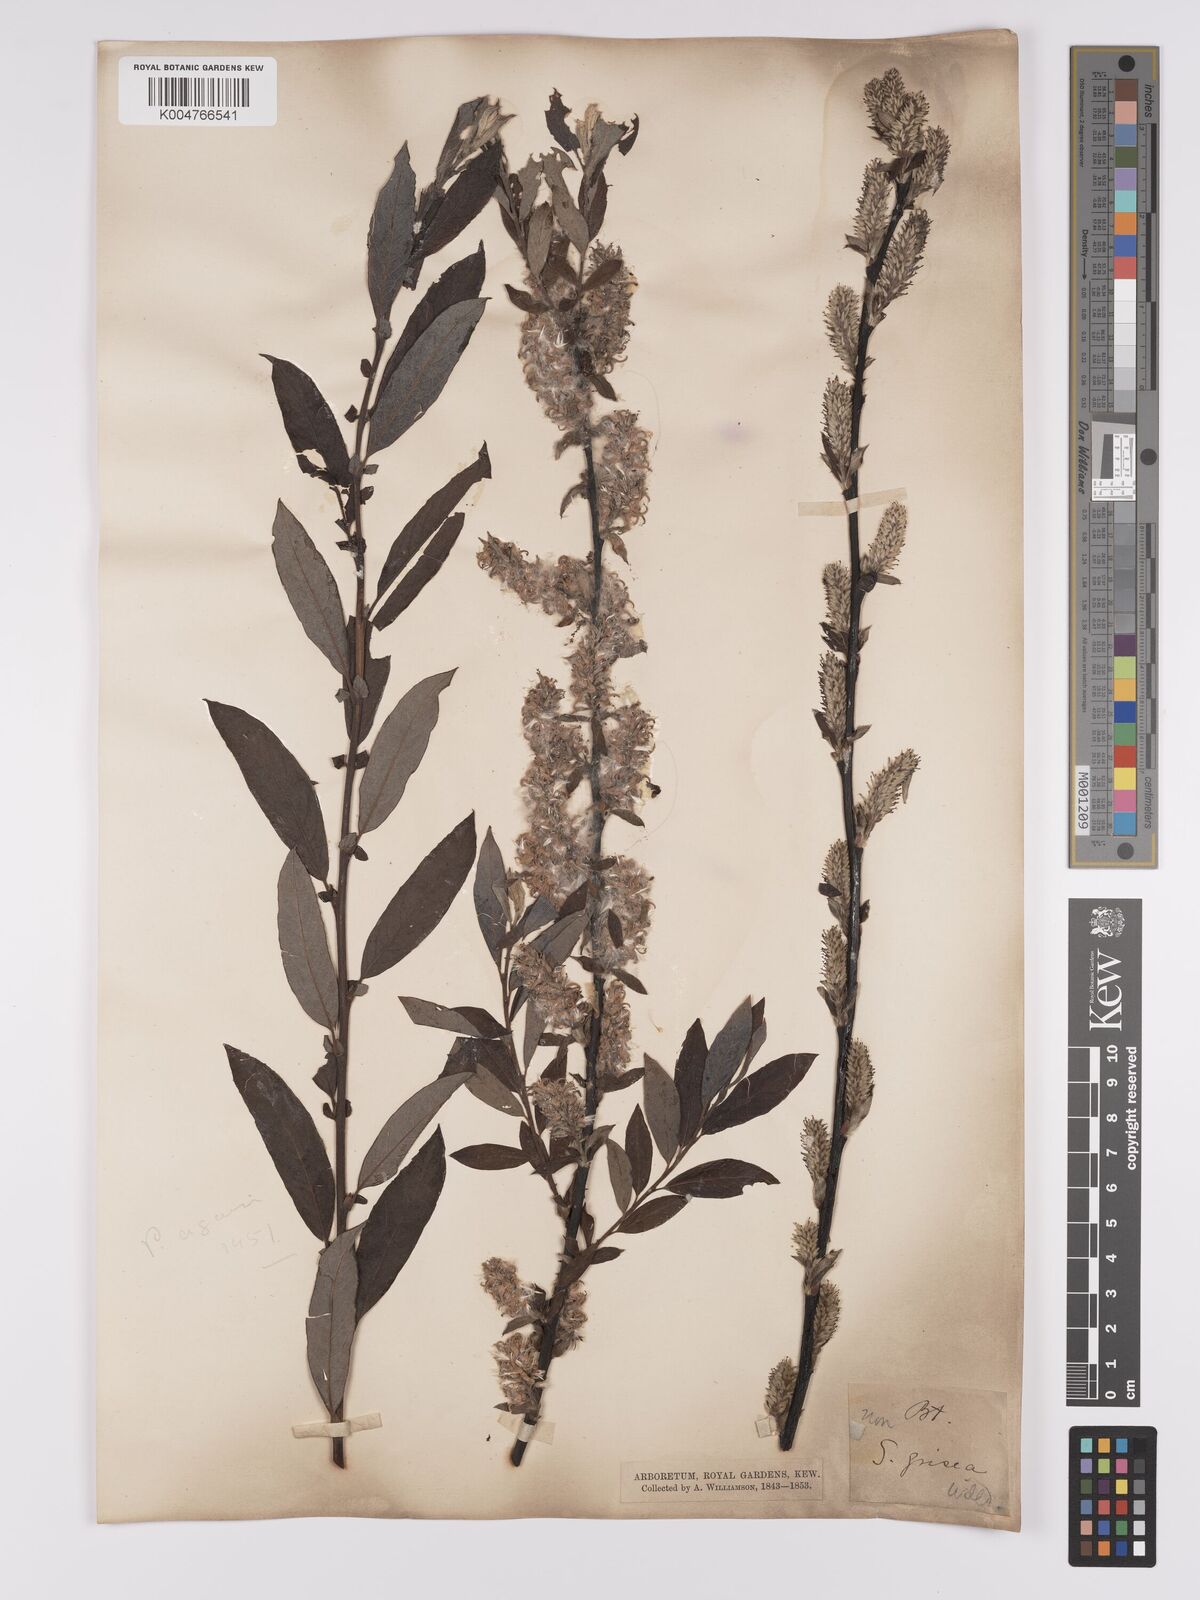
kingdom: Plantae
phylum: Tracheophyta
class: Magnoliopsida
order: Malpighiales
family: Salicaceae
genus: Salix
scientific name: Salix caprea
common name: Goat willow
